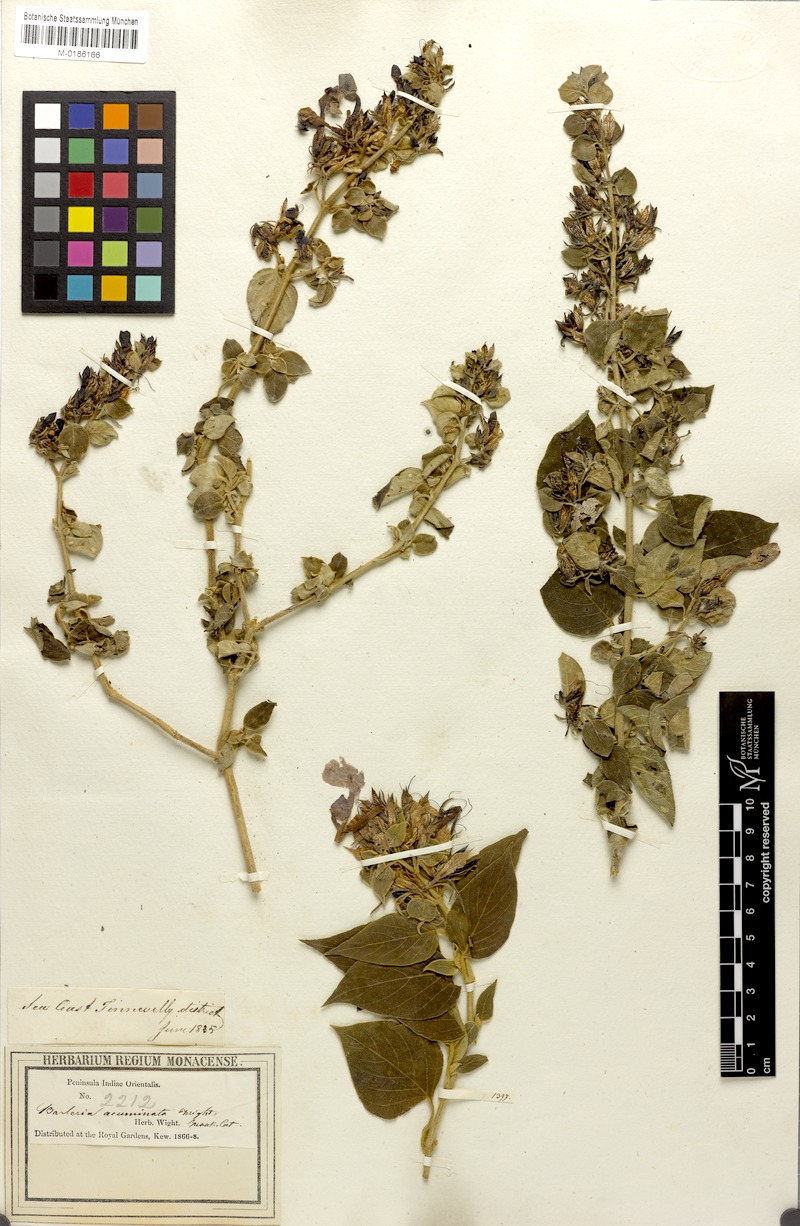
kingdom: Plantae
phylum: Tracheophyta
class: Magnoliopsida
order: Lamiales
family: Acanthaceae
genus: Barleria
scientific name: Barleria tomentosa
